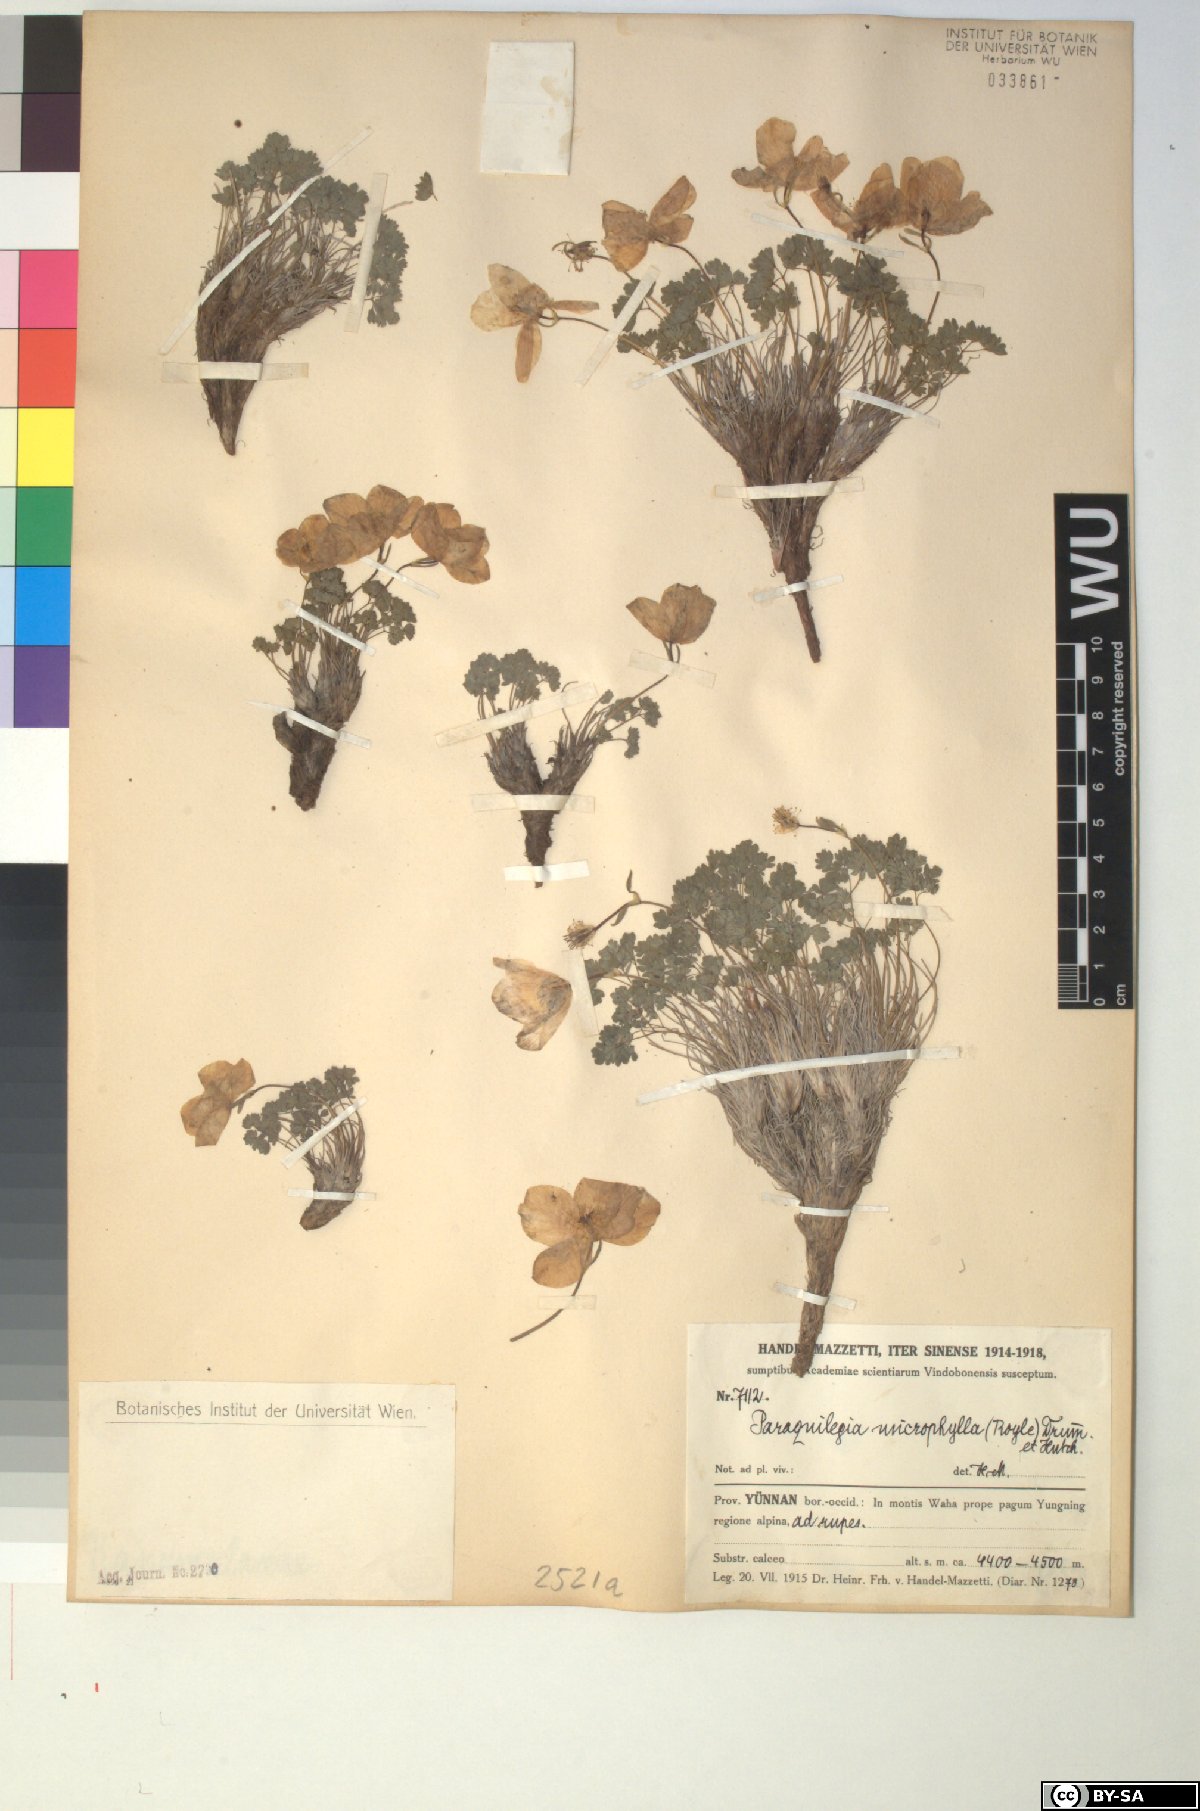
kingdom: Plantae
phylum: Tracheophyta
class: Magnoliopsida
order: Ranunculales
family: Ranunculaceae
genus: Paraquilegia
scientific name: Paraquilegia microphylla
